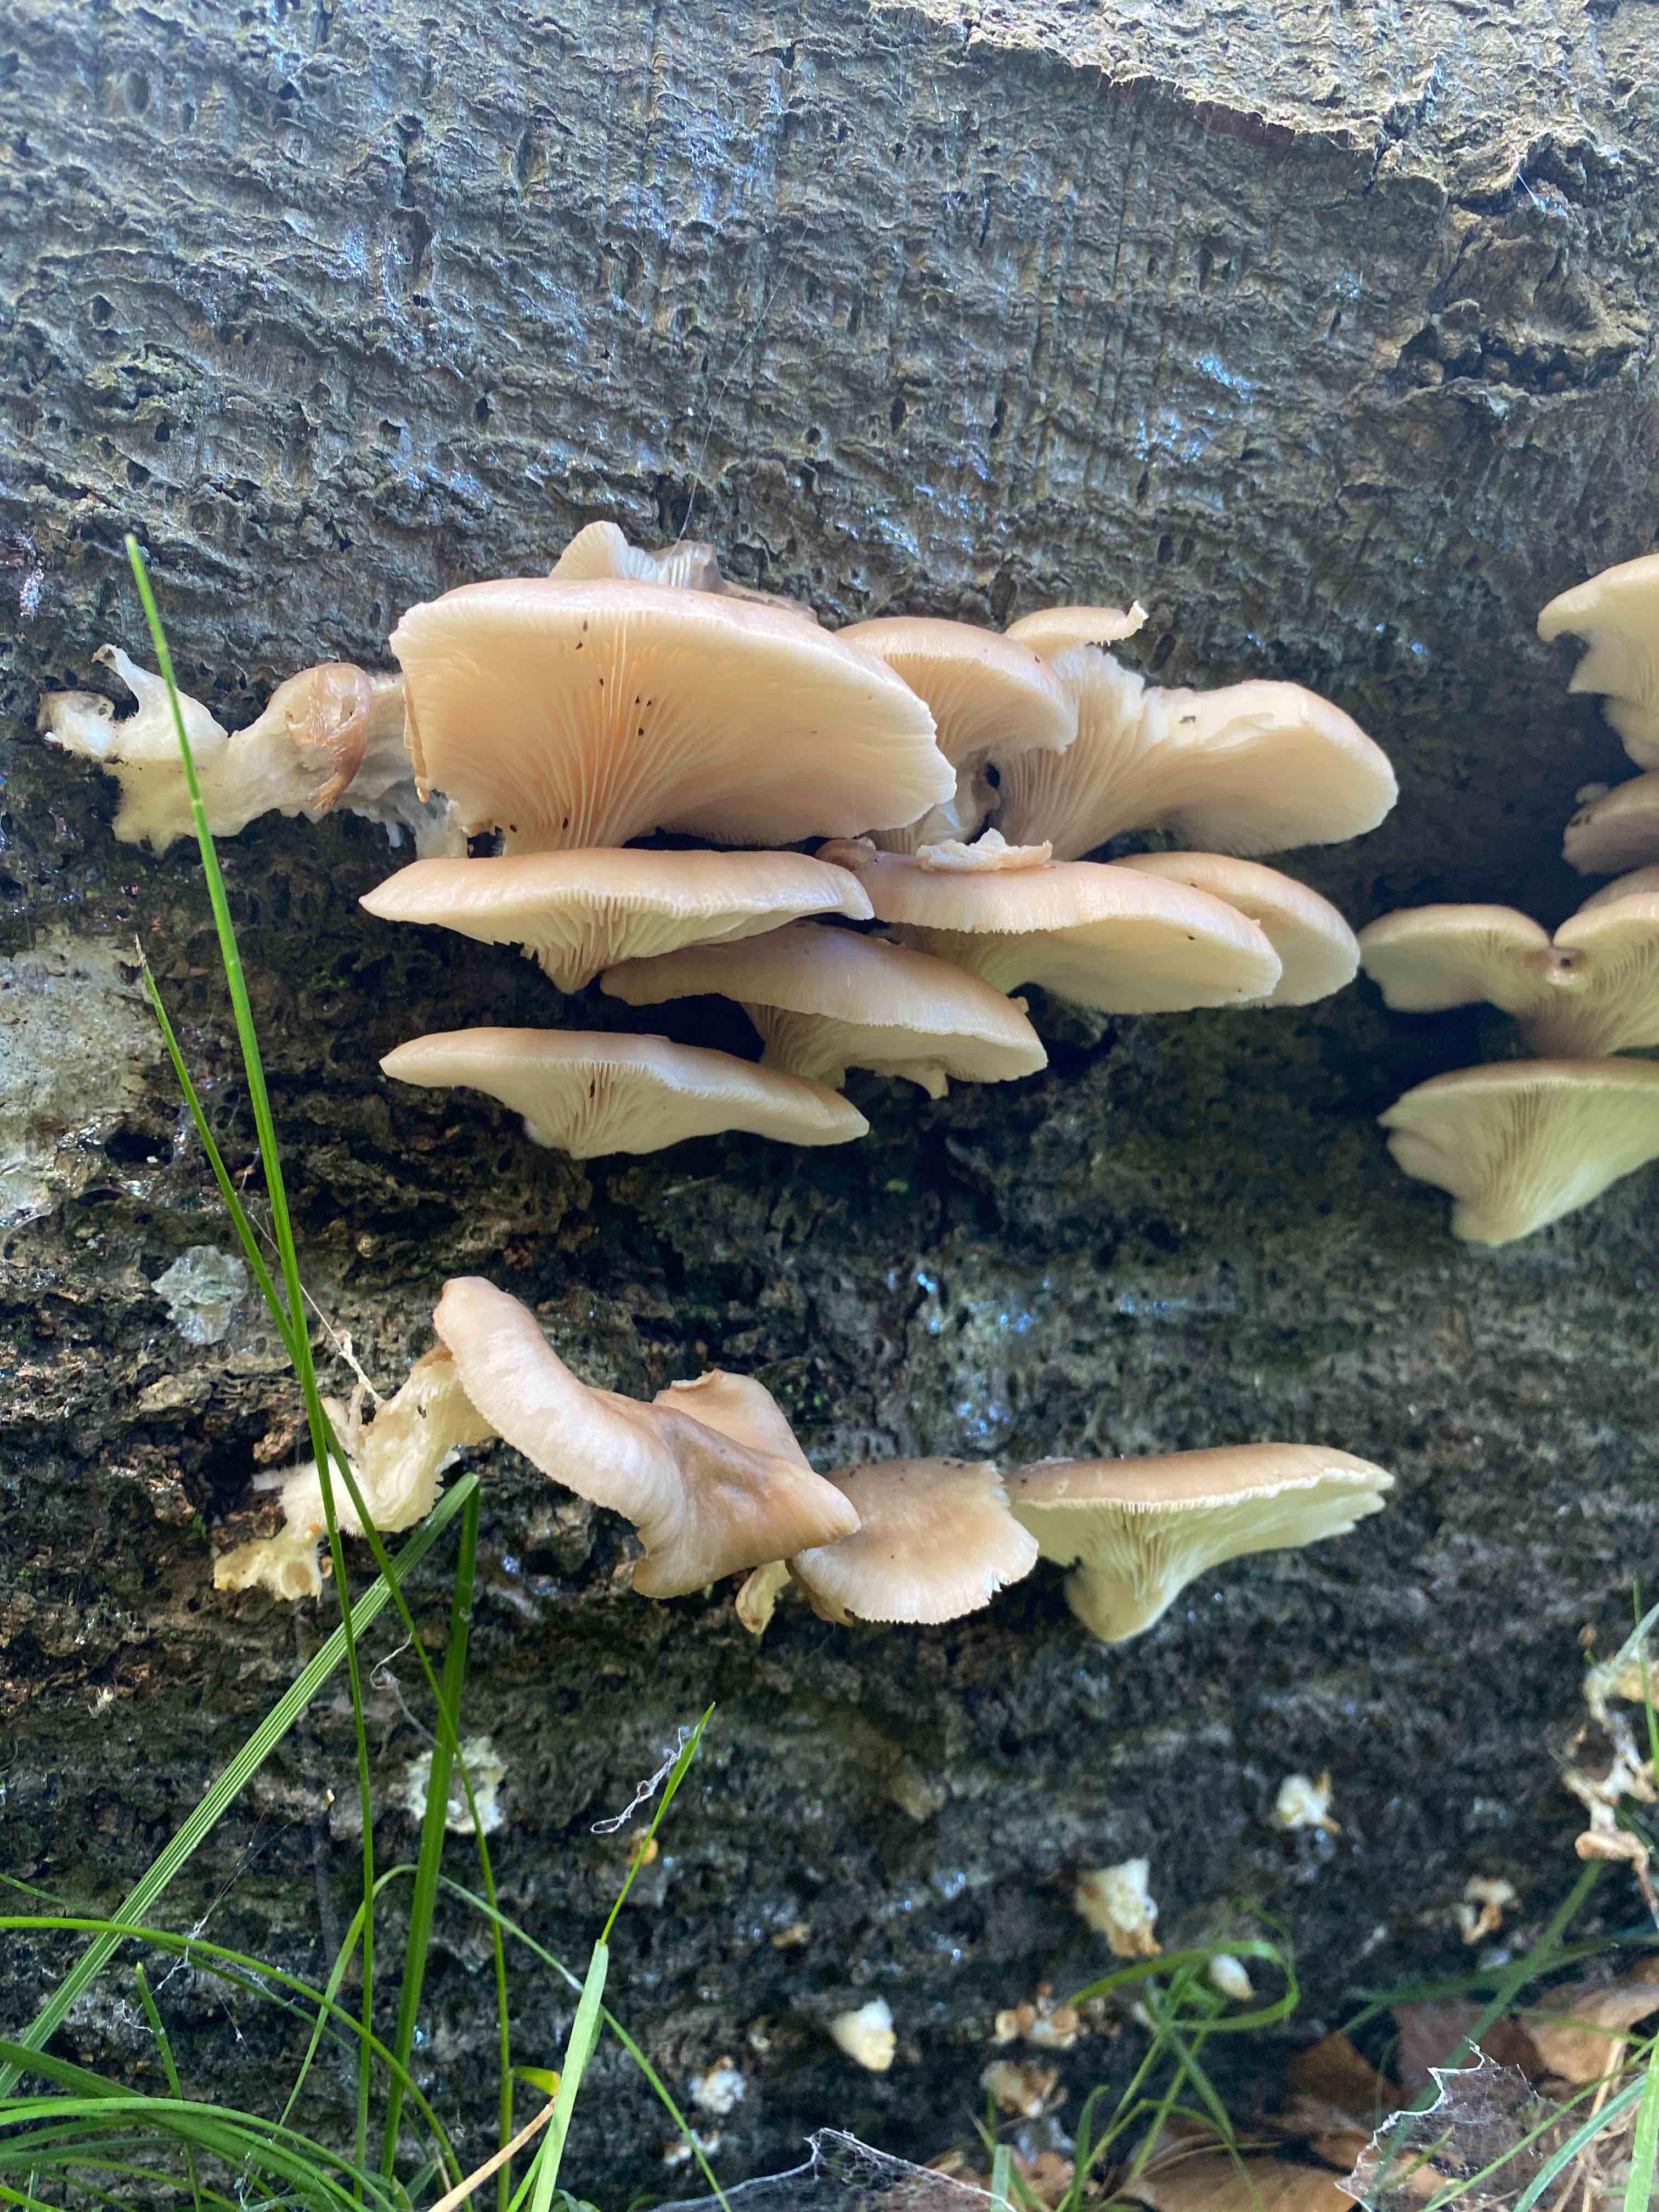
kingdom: Fungi
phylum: Basidiomycota
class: Agaricomycetes
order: Agaricales
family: Pleurotaceae
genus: Pleurotus
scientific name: Pleurotus pulmonarius
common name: sommer-østershat
